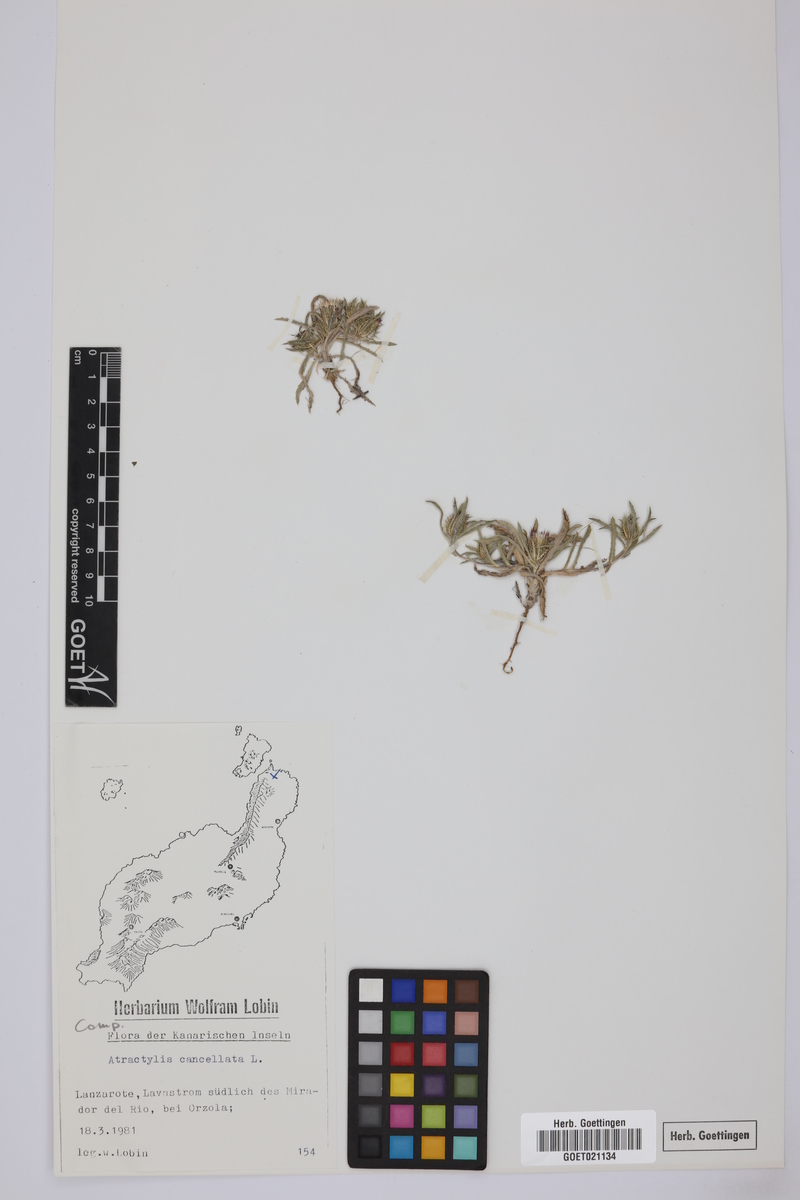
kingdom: Plantae
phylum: Tracheophyta
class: Magnoliopsida
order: Asterales
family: Asteraceae
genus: Atractylis
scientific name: Atractylis cancellata
